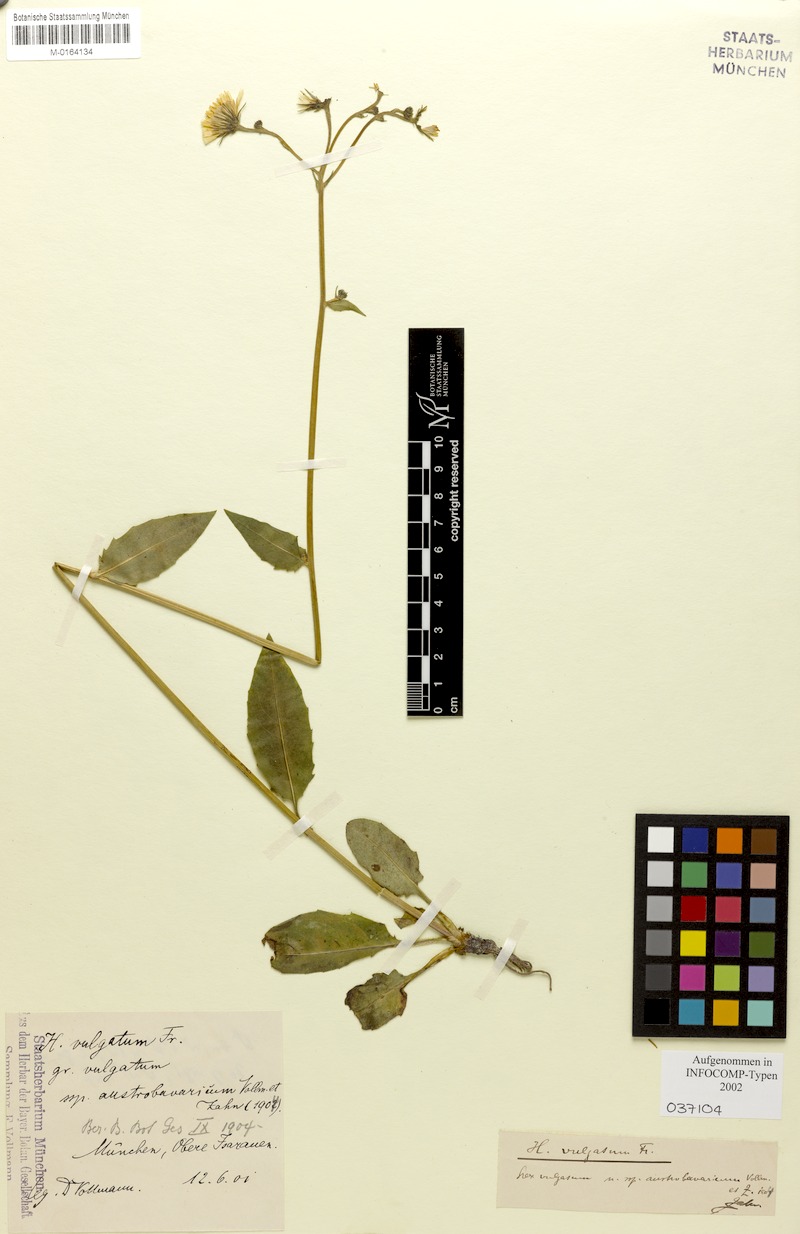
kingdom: Plantae
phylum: Tracheophyta
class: Magnoliopsida
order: Asterales
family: Asteraceae
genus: Hieracium
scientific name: Hieracium lachenalii
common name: Common hawkweed
